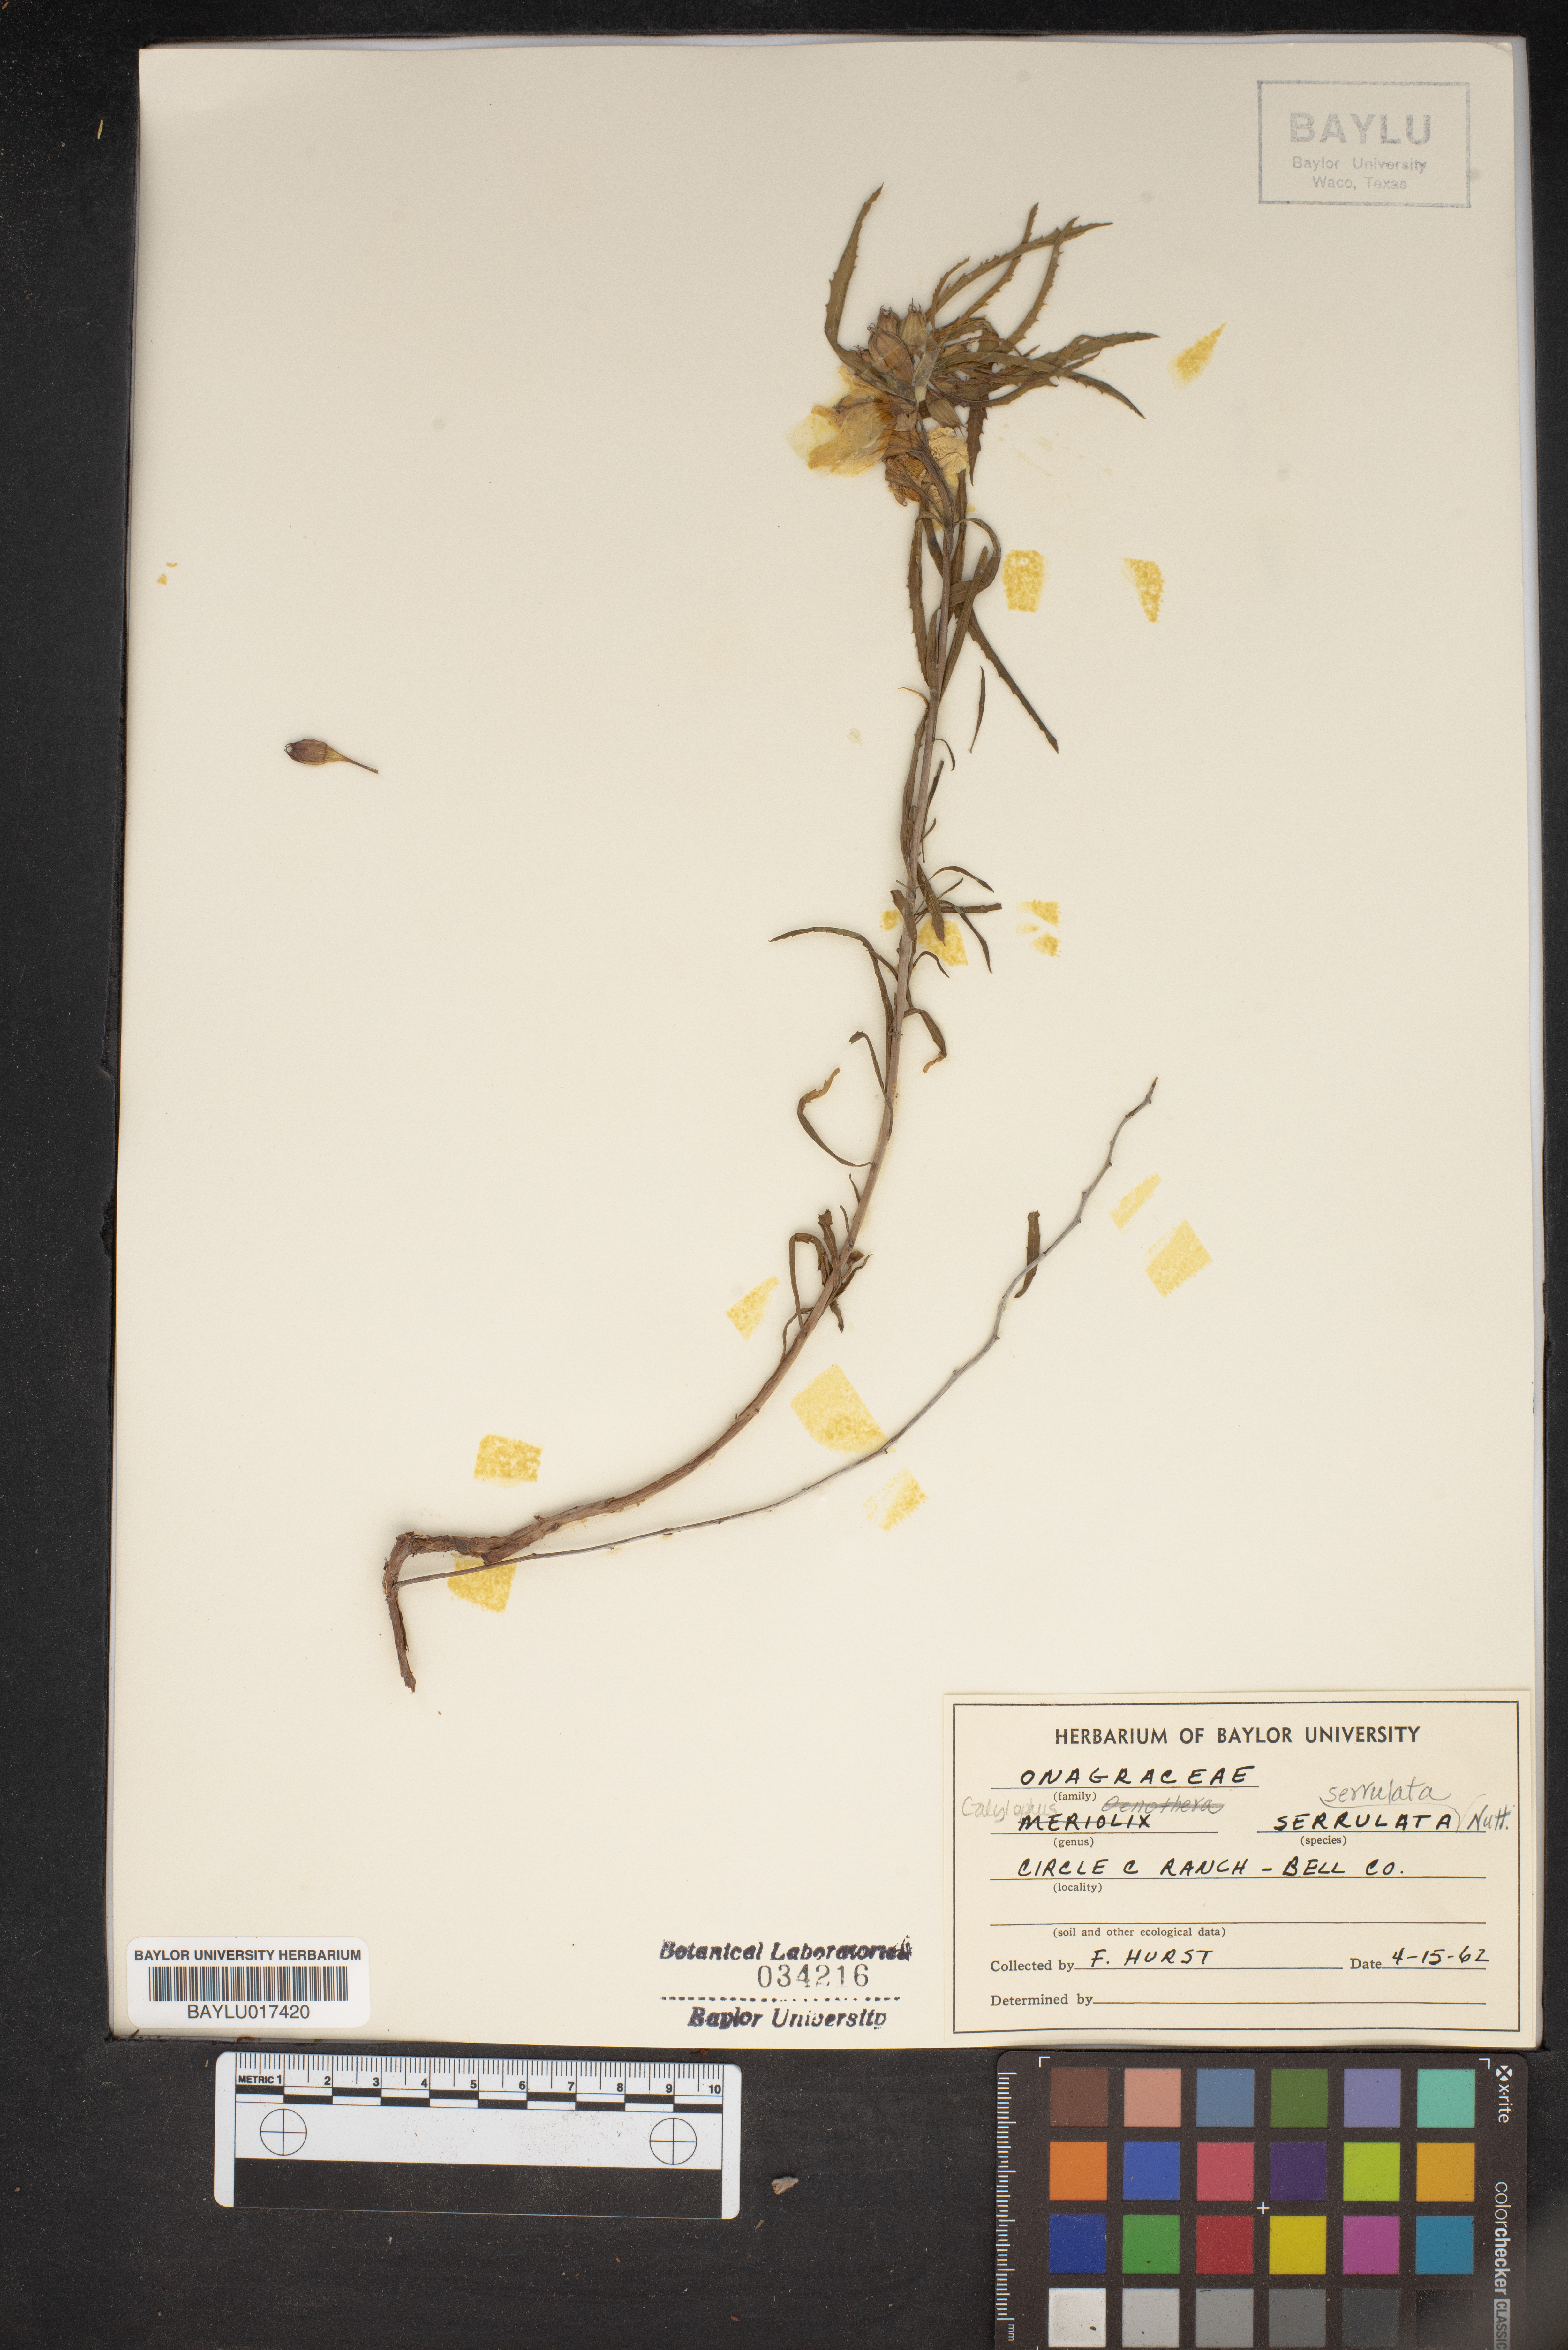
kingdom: Plantae
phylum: Tracheophyta
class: Magnoliopsida
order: Myrtales
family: Onagraceae
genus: Oenothera
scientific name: Oenothera serrulata
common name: Half-shrub calylophus
